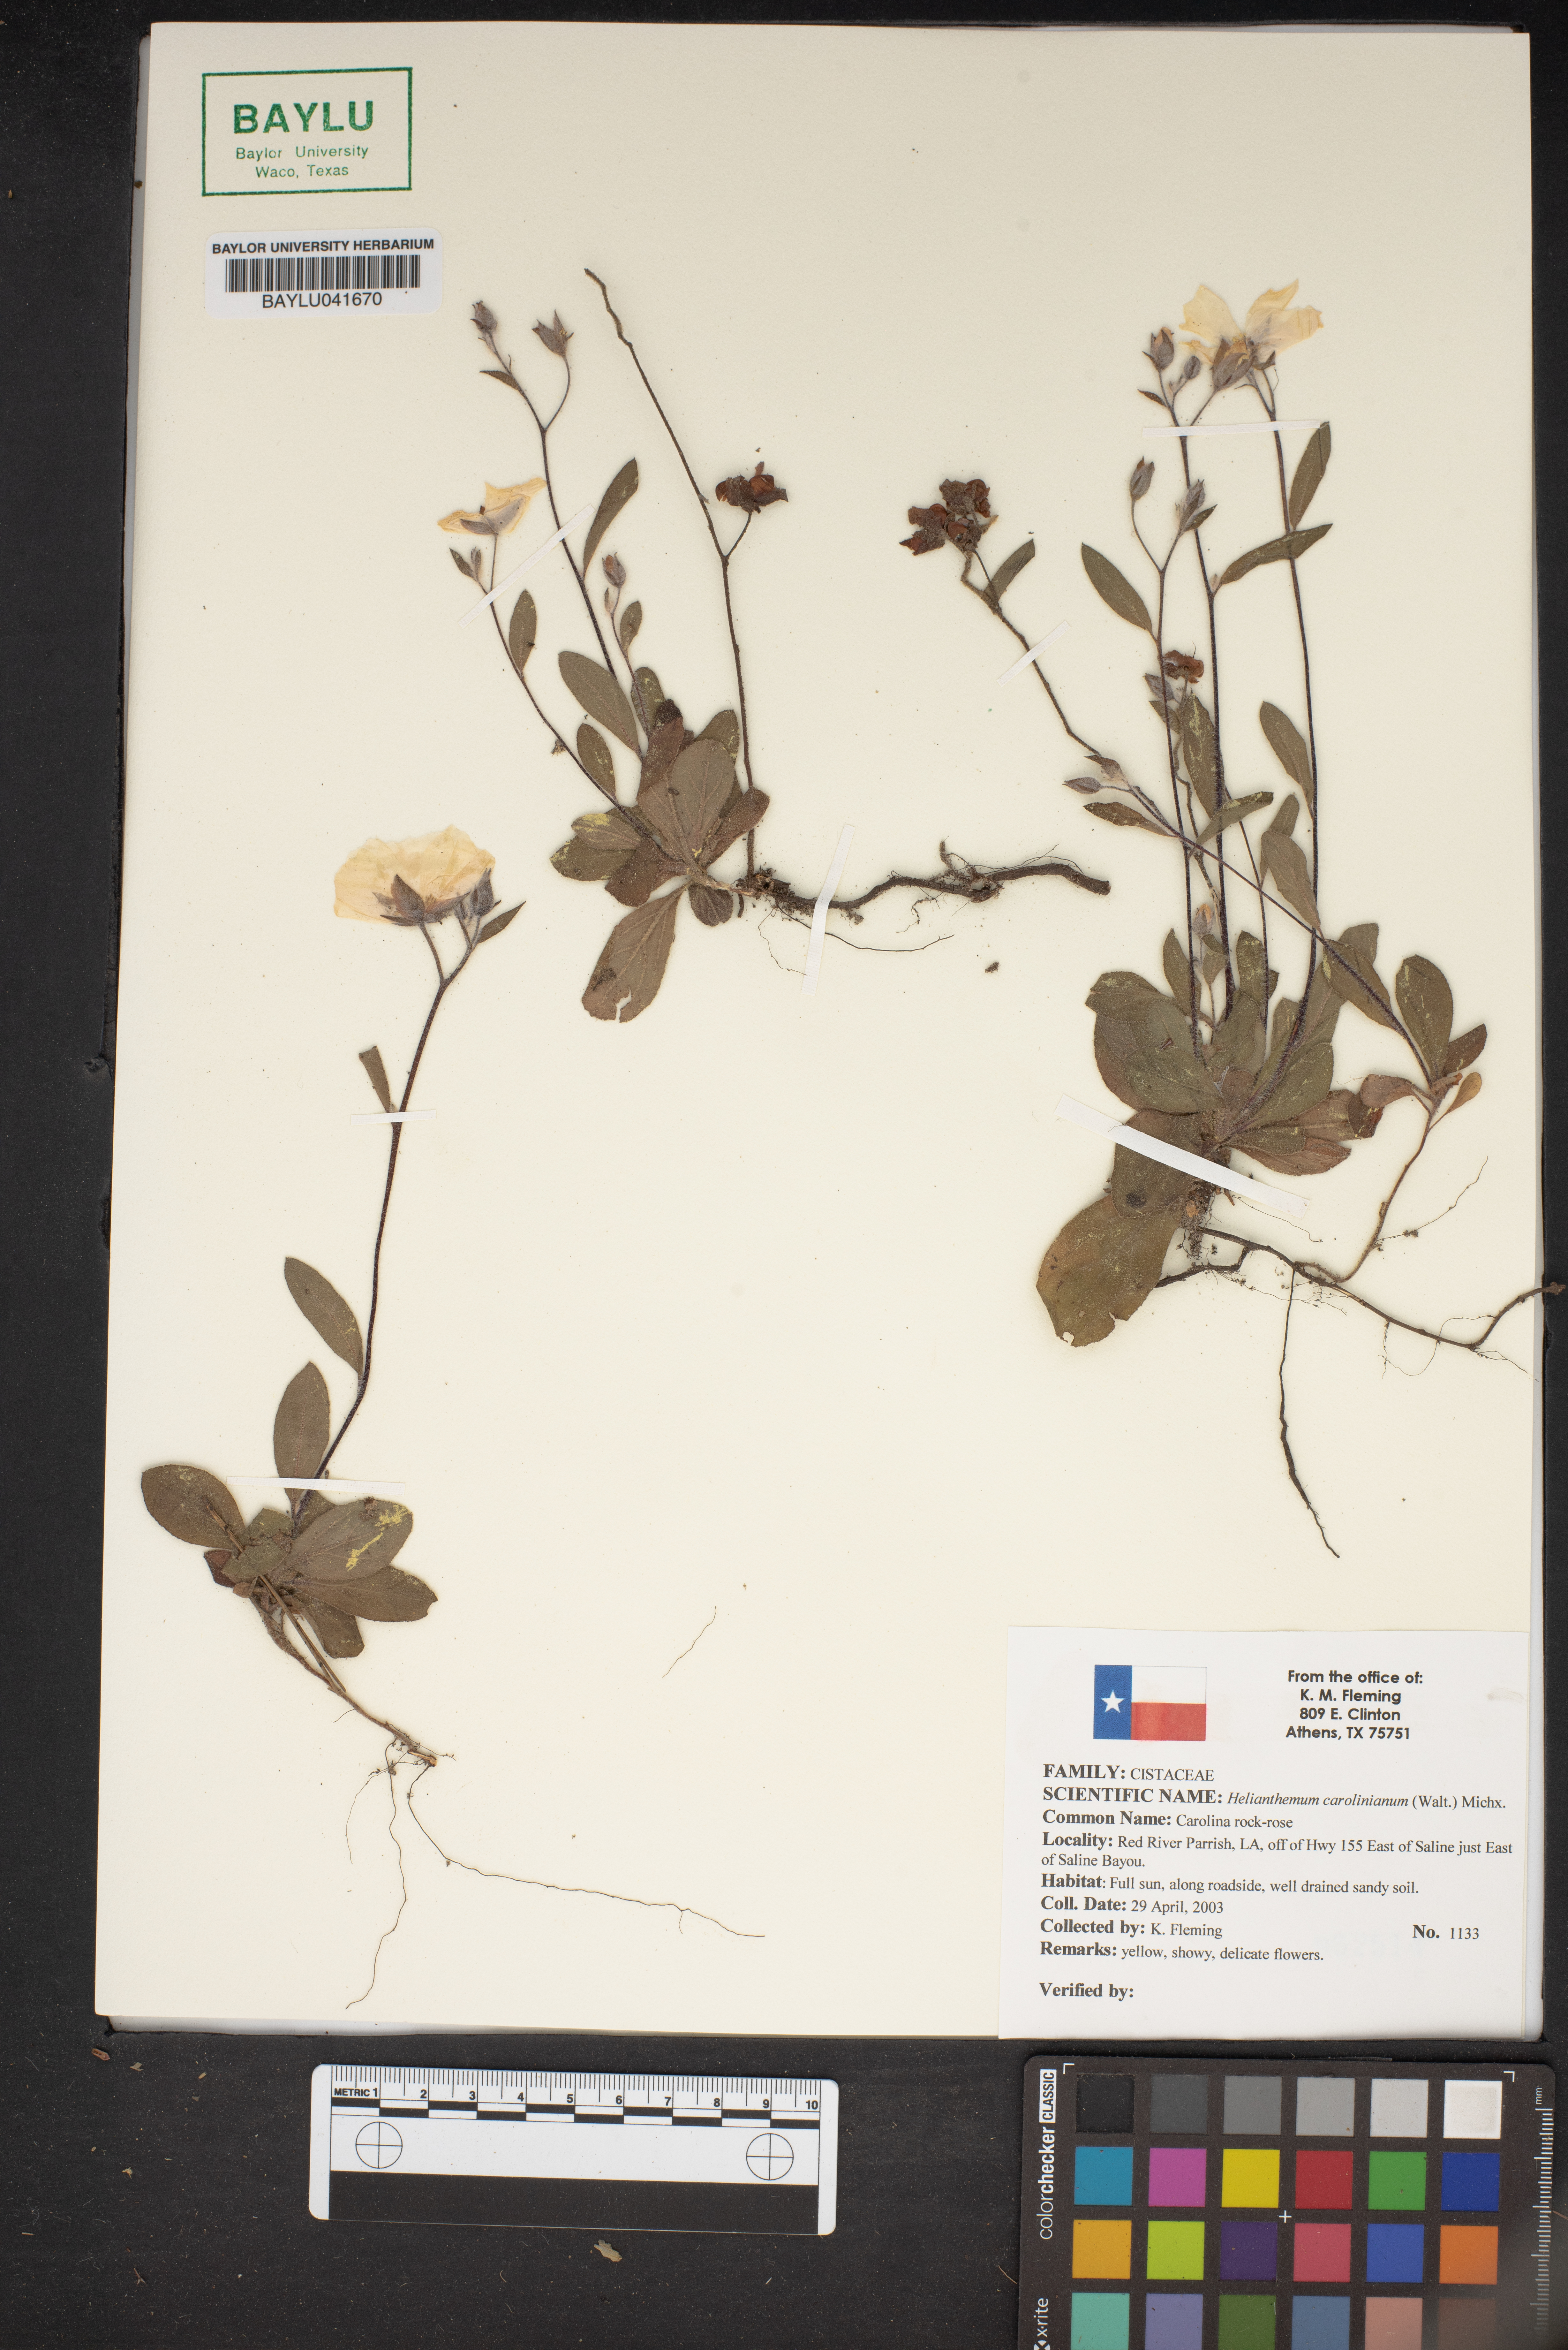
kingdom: Plantae
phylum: Tracheophyta
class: Magnoliopsida
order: Malvales
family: Cistaceae
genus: Crocanthemum
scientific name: Crocanthemum carolinianum
